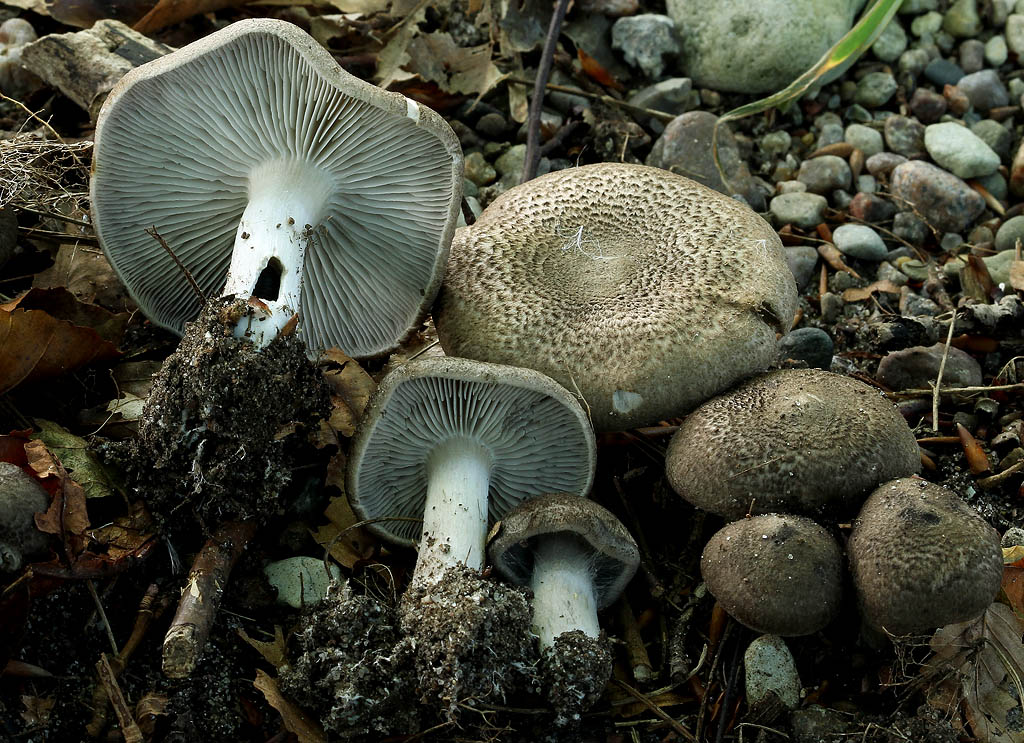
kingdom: Fungi
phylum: Basidiomycota
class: Agaricomycetes
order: Agaricales
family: Tricholomataceae
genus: Tricholoma
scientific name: Tricholoma scalpturatum
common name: gulplettet ridderhat
